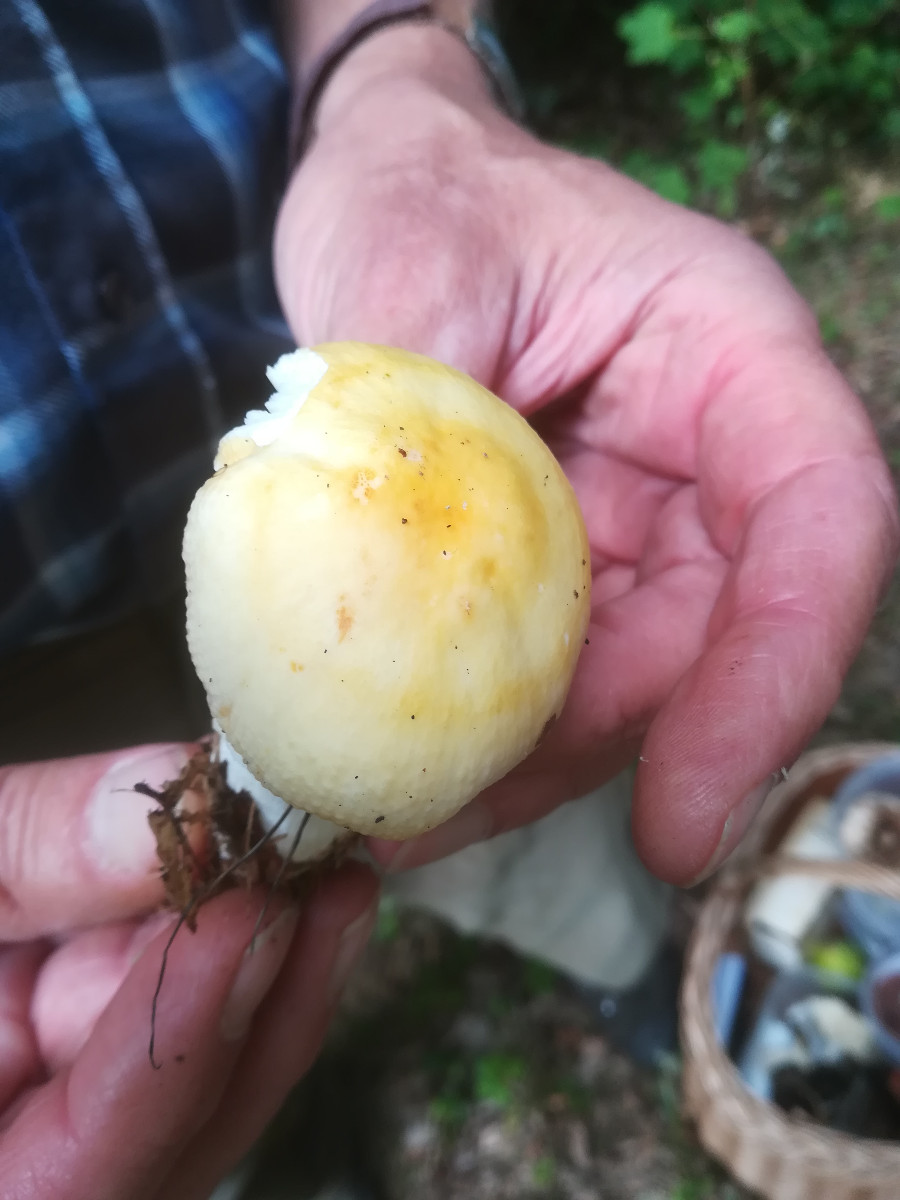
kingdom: Fungi
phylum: Basidiomycota
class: Agaricomycetes
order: Russulales
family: Russulaceae
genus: Russula
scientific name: Russula solaris
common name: sol-skørhat
